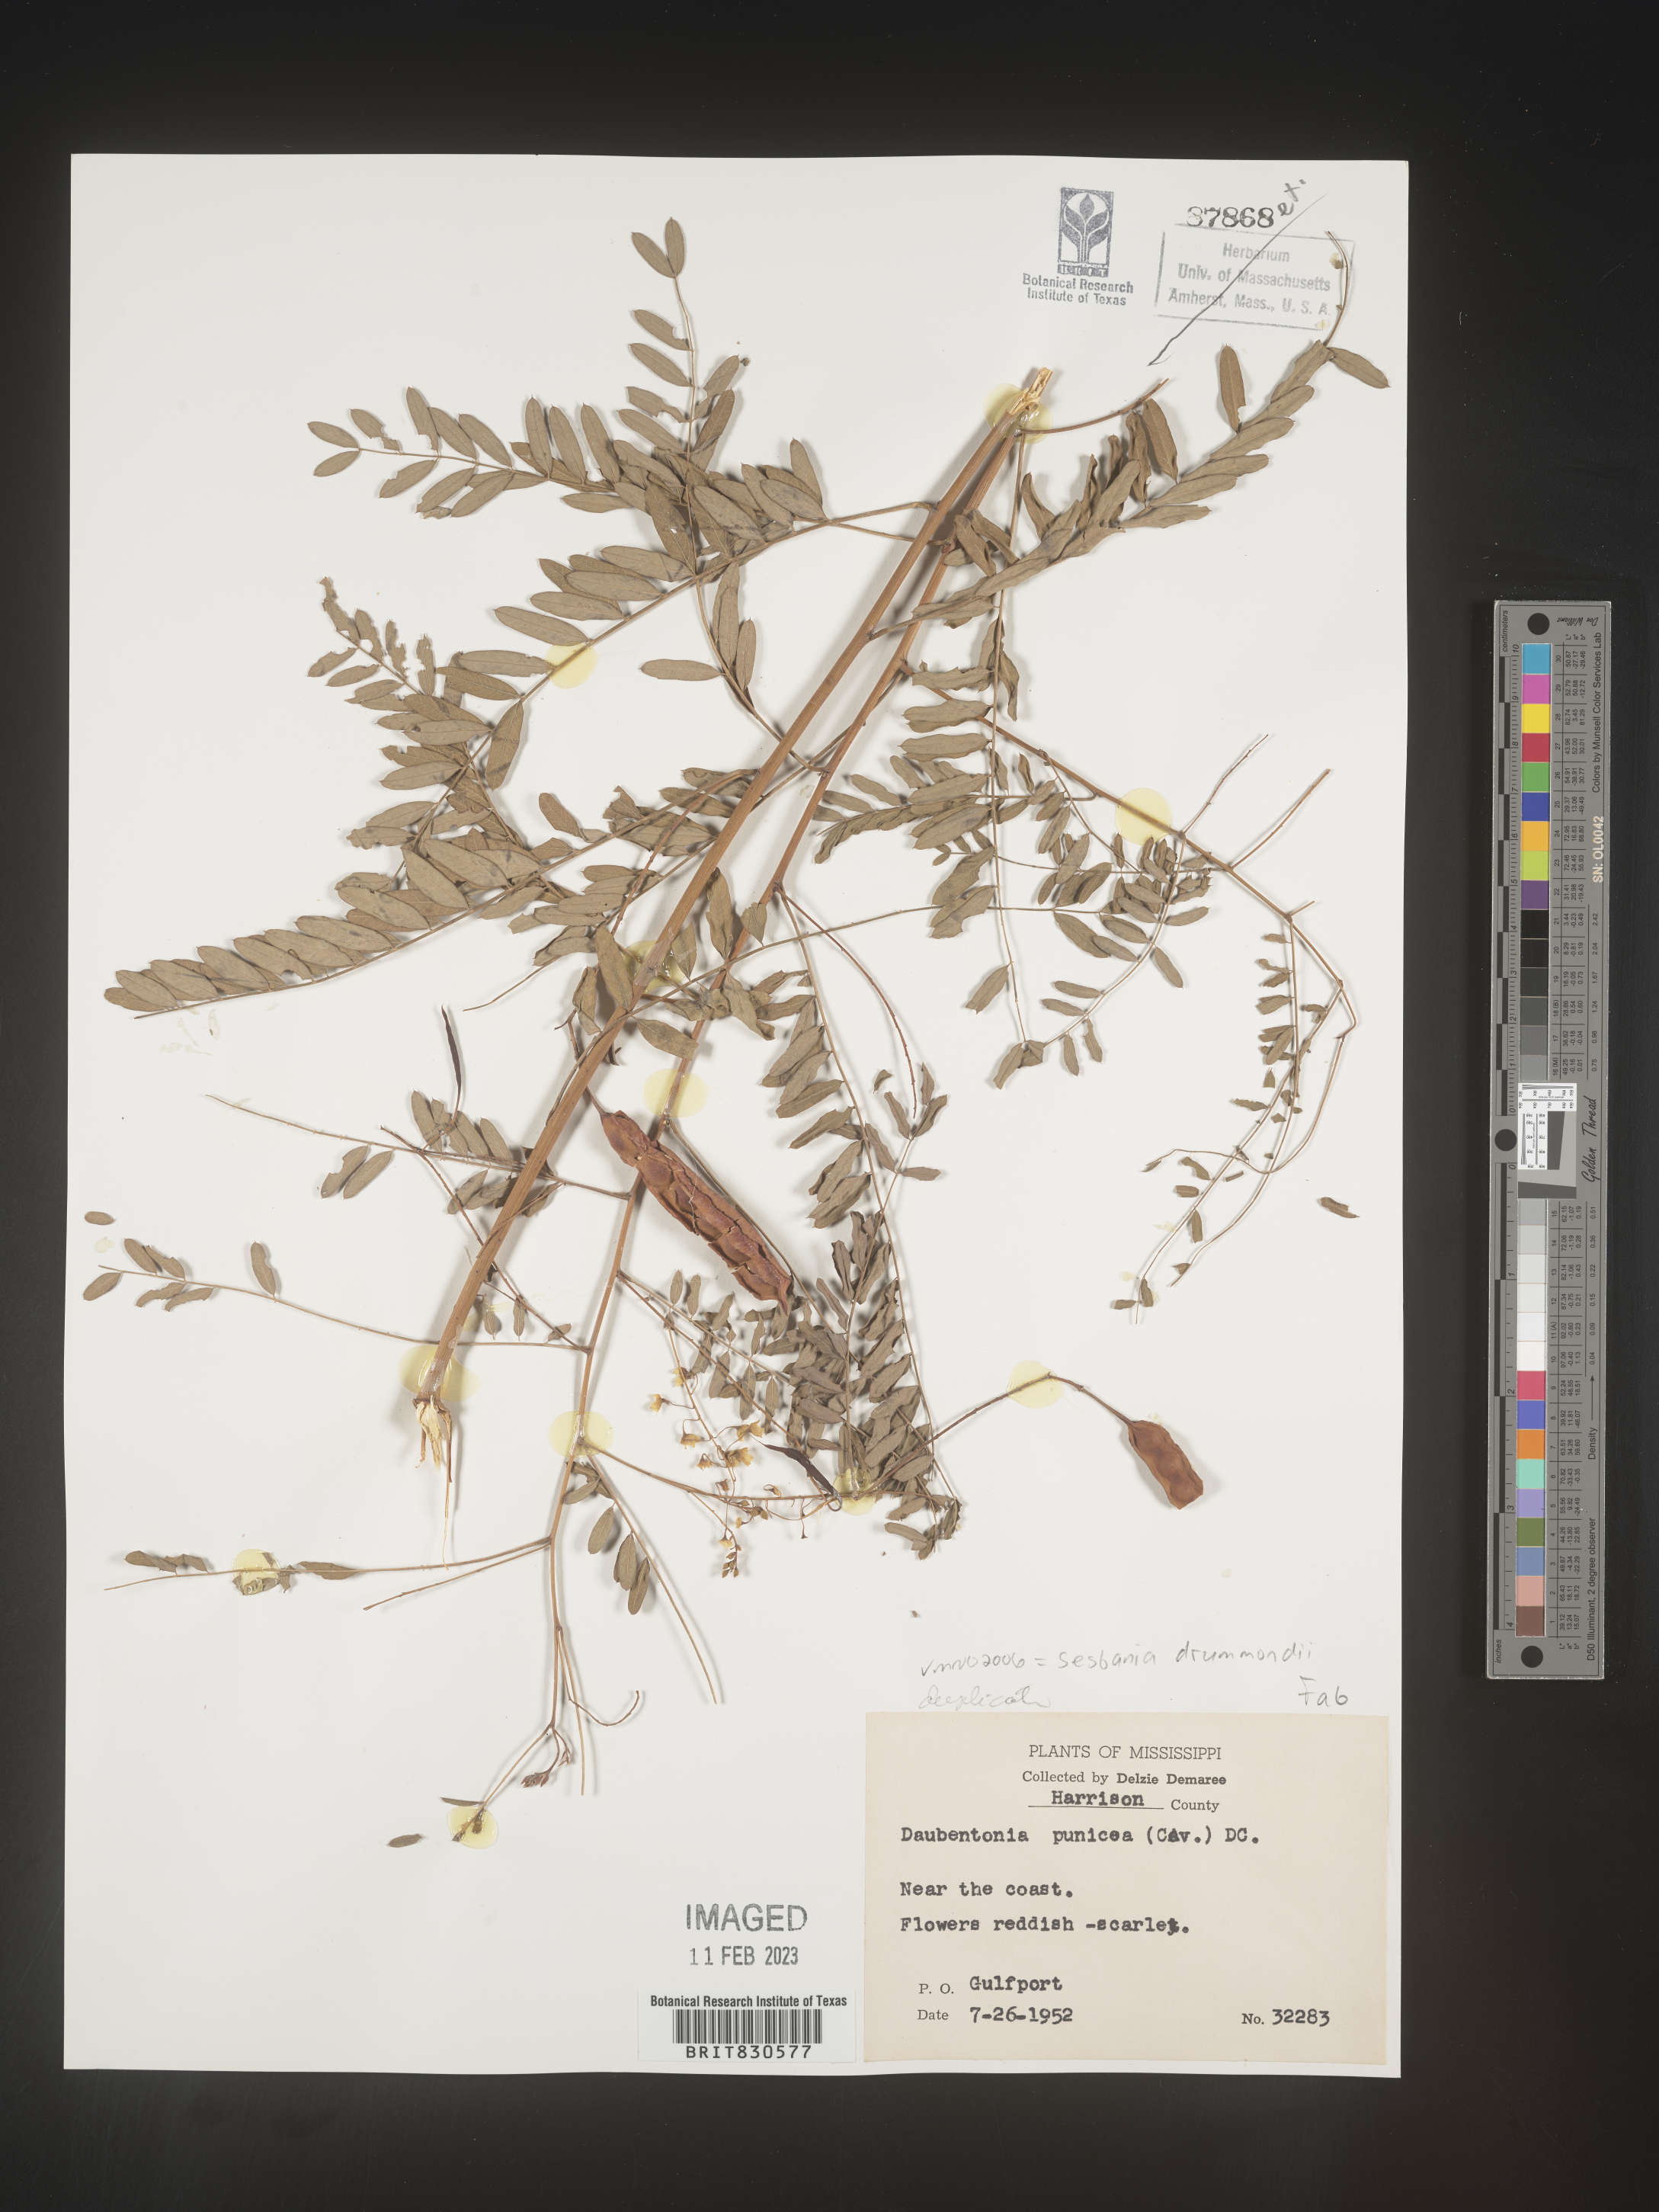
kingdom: Plantae
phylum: Tracheophyta
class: Magnoliopsida
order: Fabales
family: Fabaceae
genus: Sesbania
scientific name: Sesbania drummondii
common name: Poison-bean
